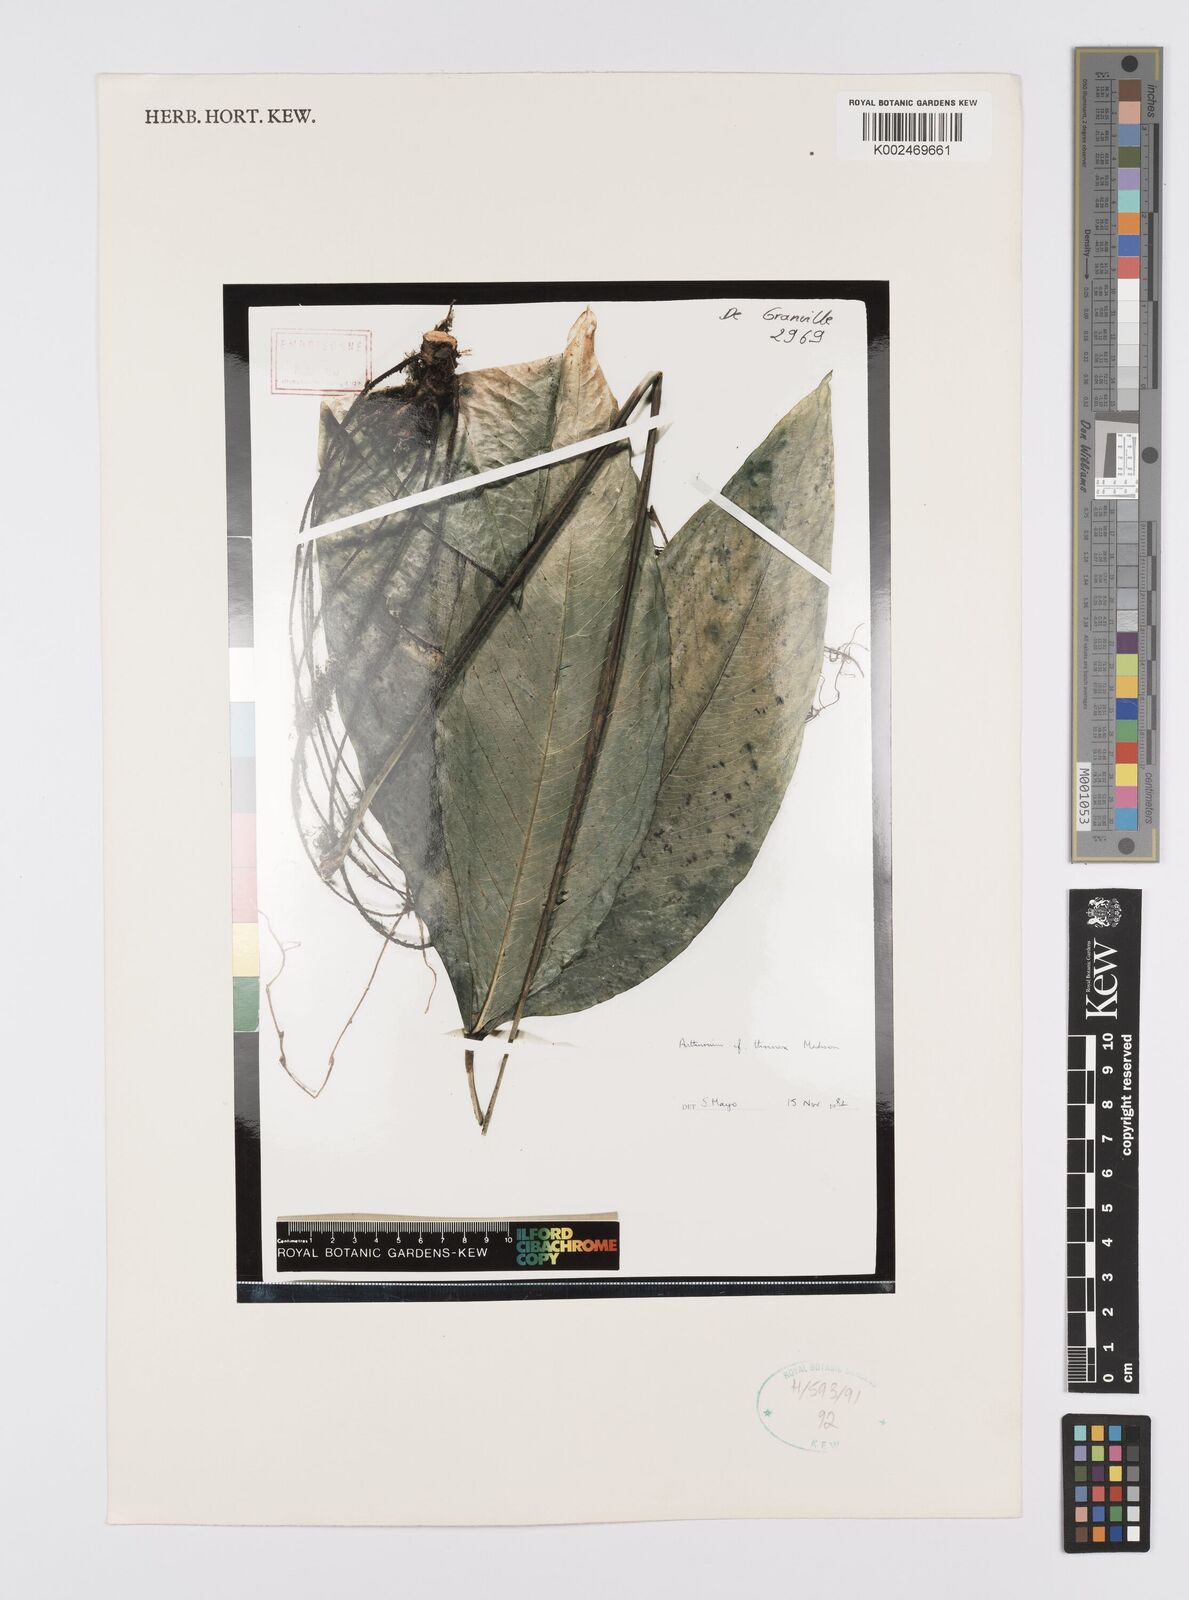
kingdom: Plantae
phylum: Tracheophyta
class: Liliopsida
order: Alismatales
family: Araceae
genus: Anthurium
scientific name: Anthurium thrinax
